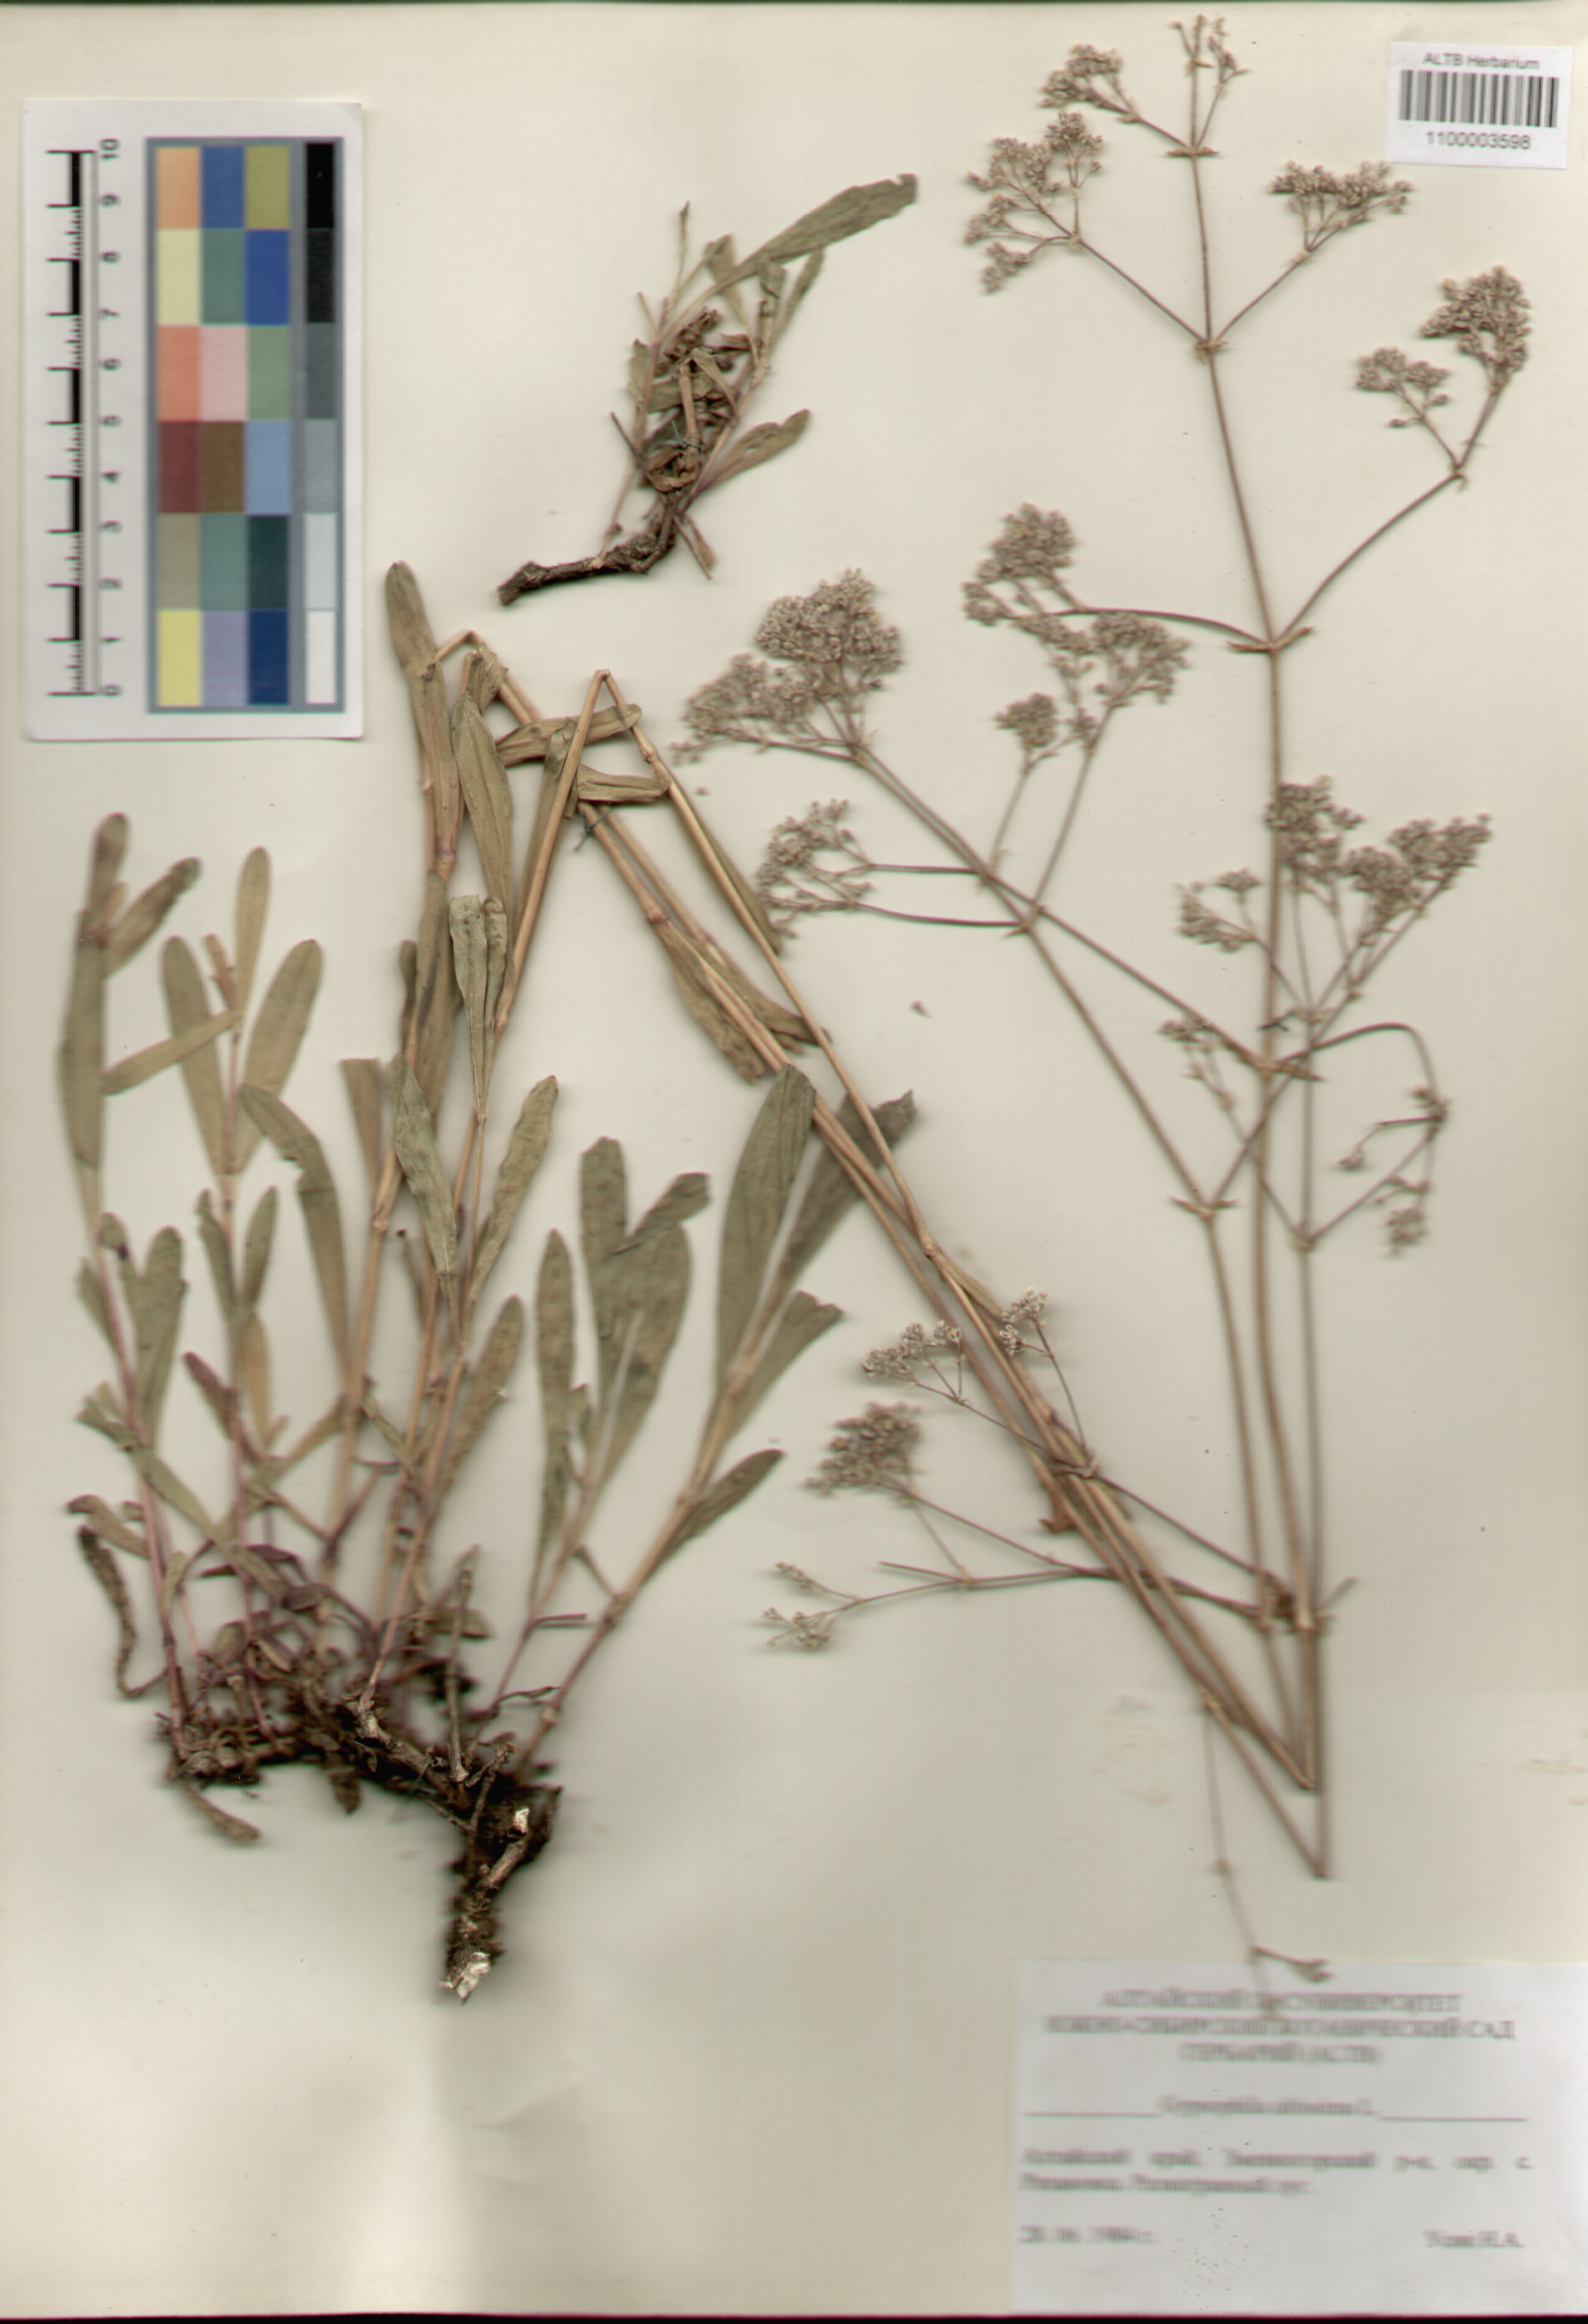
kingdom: Plantae
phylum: Tracheophyta
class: Magnoliopsida
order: Caryophyllales
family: Caryophyllaceae
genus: Gypsophila
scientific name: Gypsophila altissima
